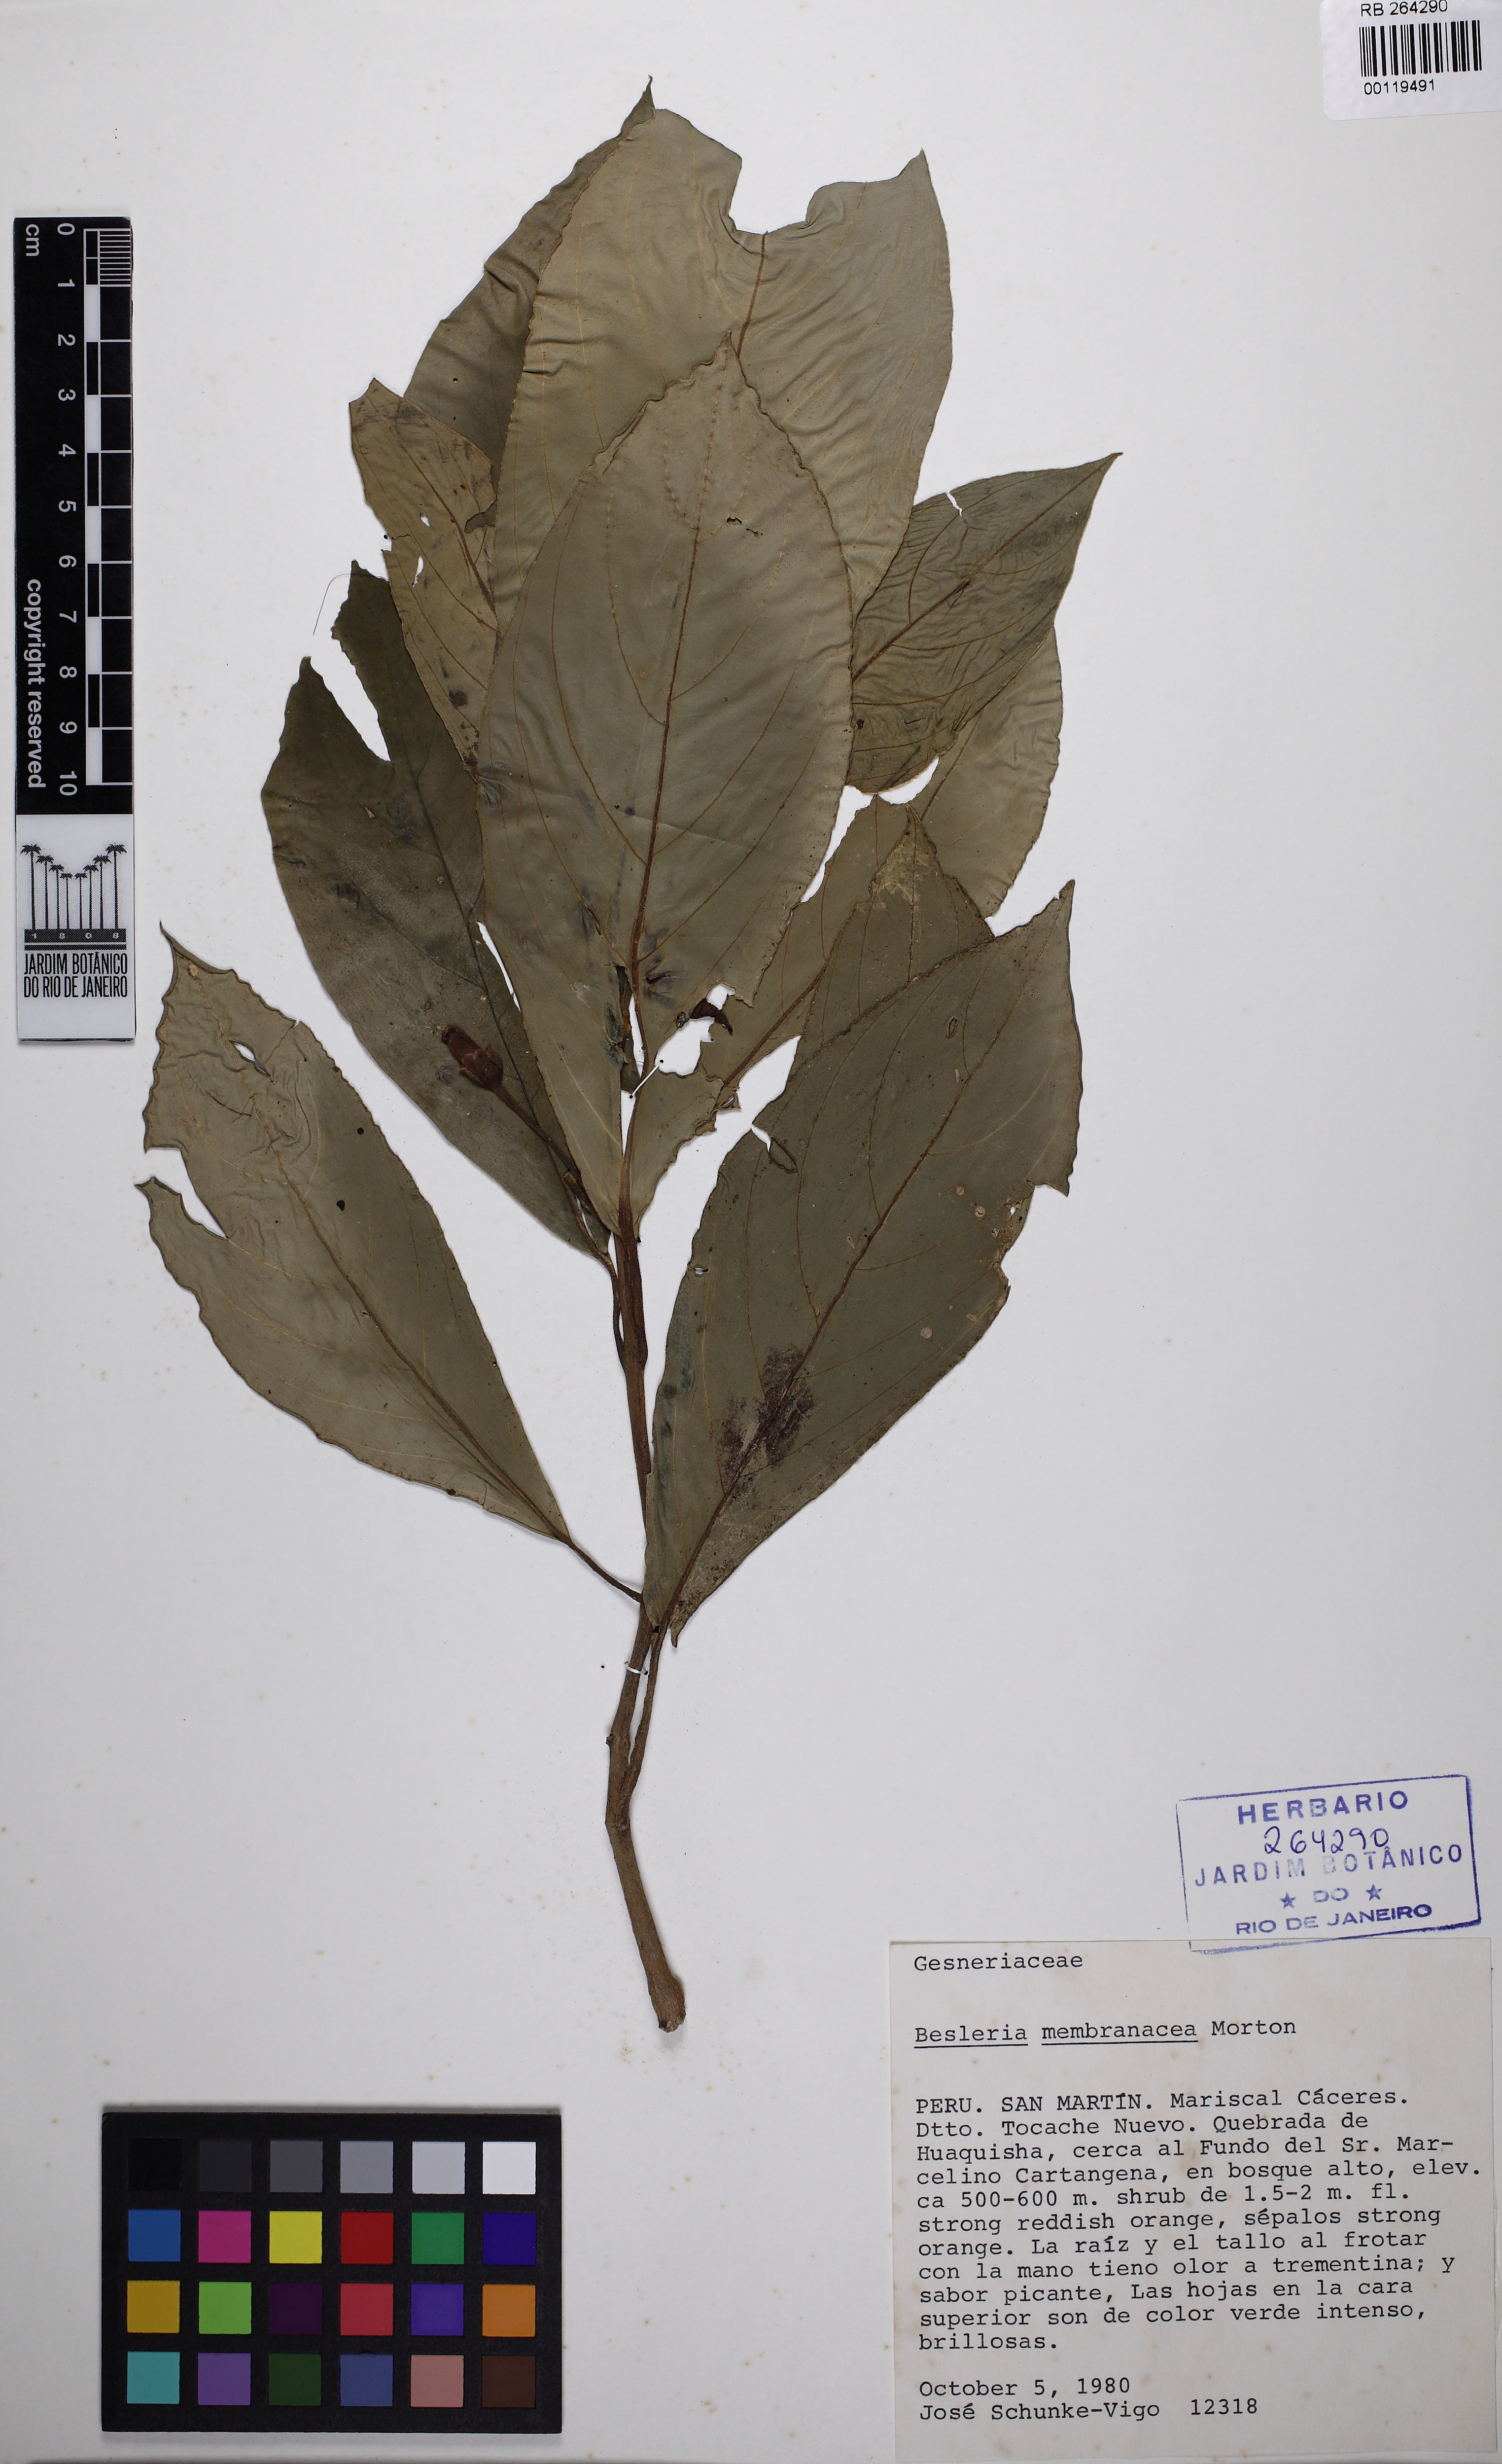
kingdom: Plantae
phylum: Tracheophyta
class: Magnoliopsida
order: Lamiales
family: Gesneriaceae
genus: Besleria
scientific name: Besleria membranacea
